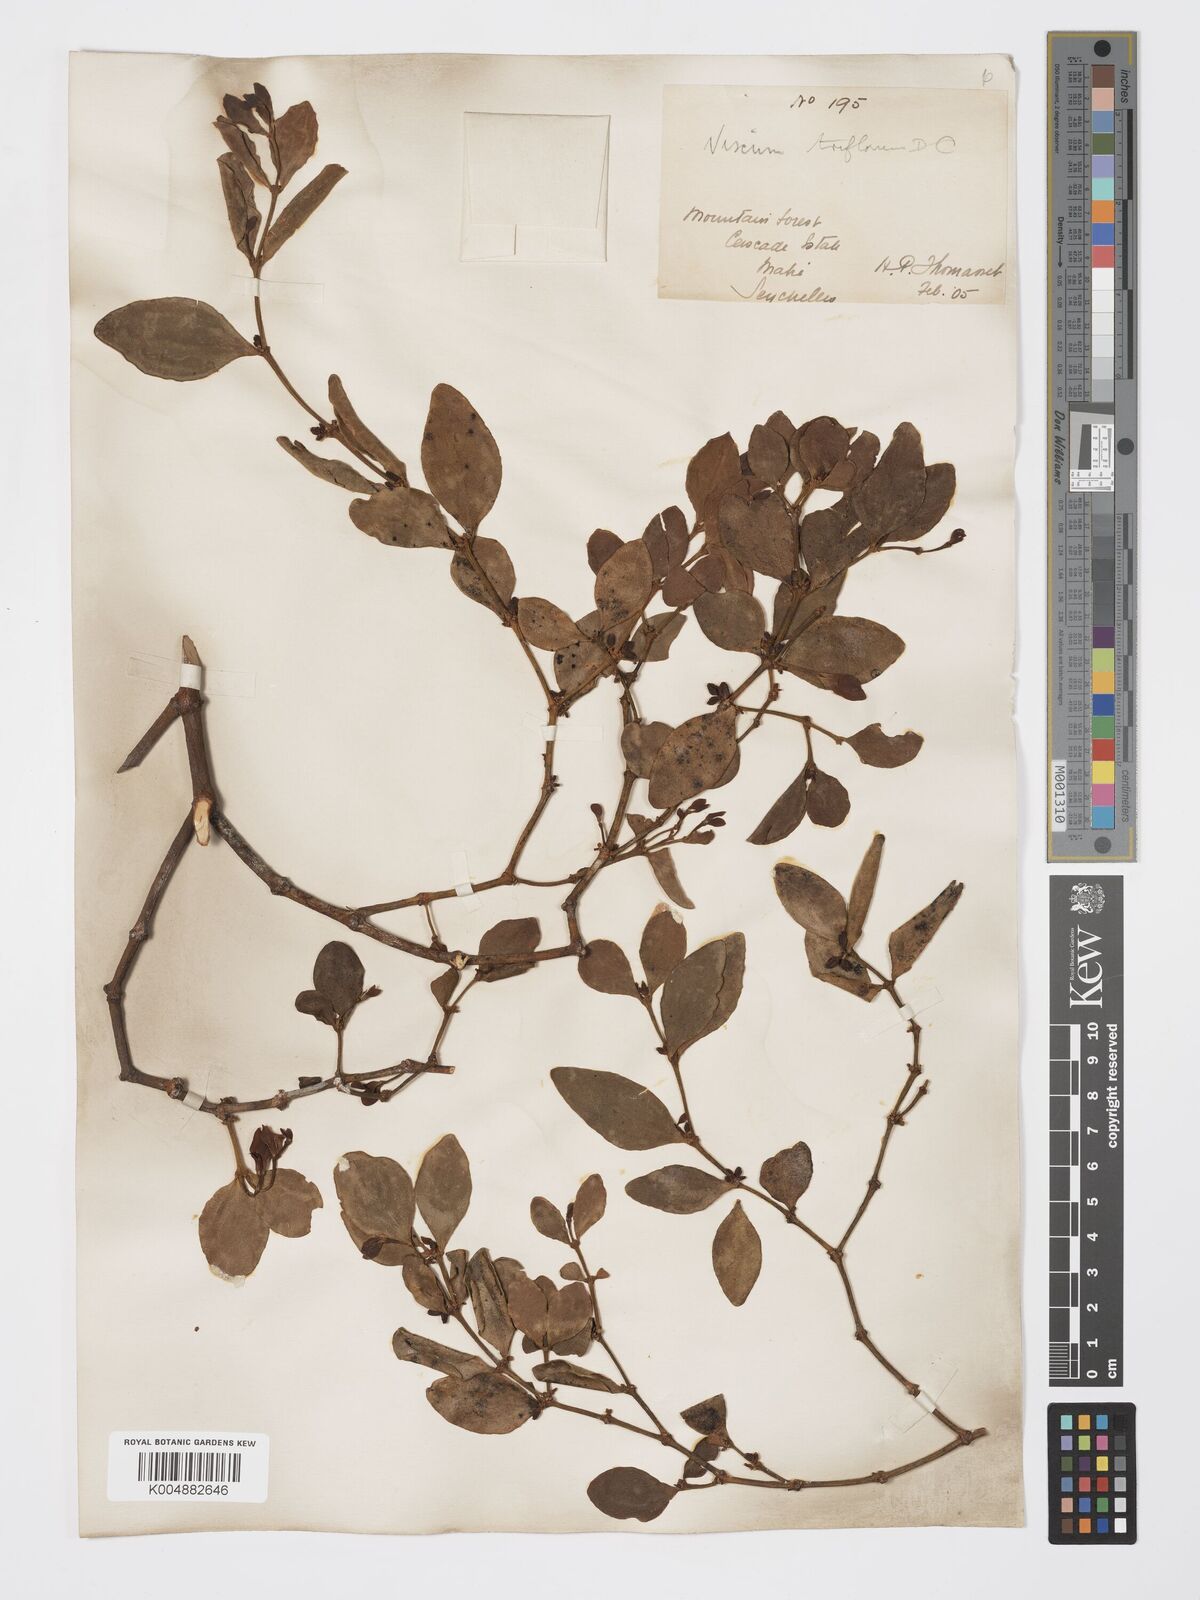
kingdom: Plantae
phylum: Tracheophyta
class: Magnoliopsida
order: Santalales
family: Viscaceae
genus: Viscum
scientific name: Viscum triflorum
